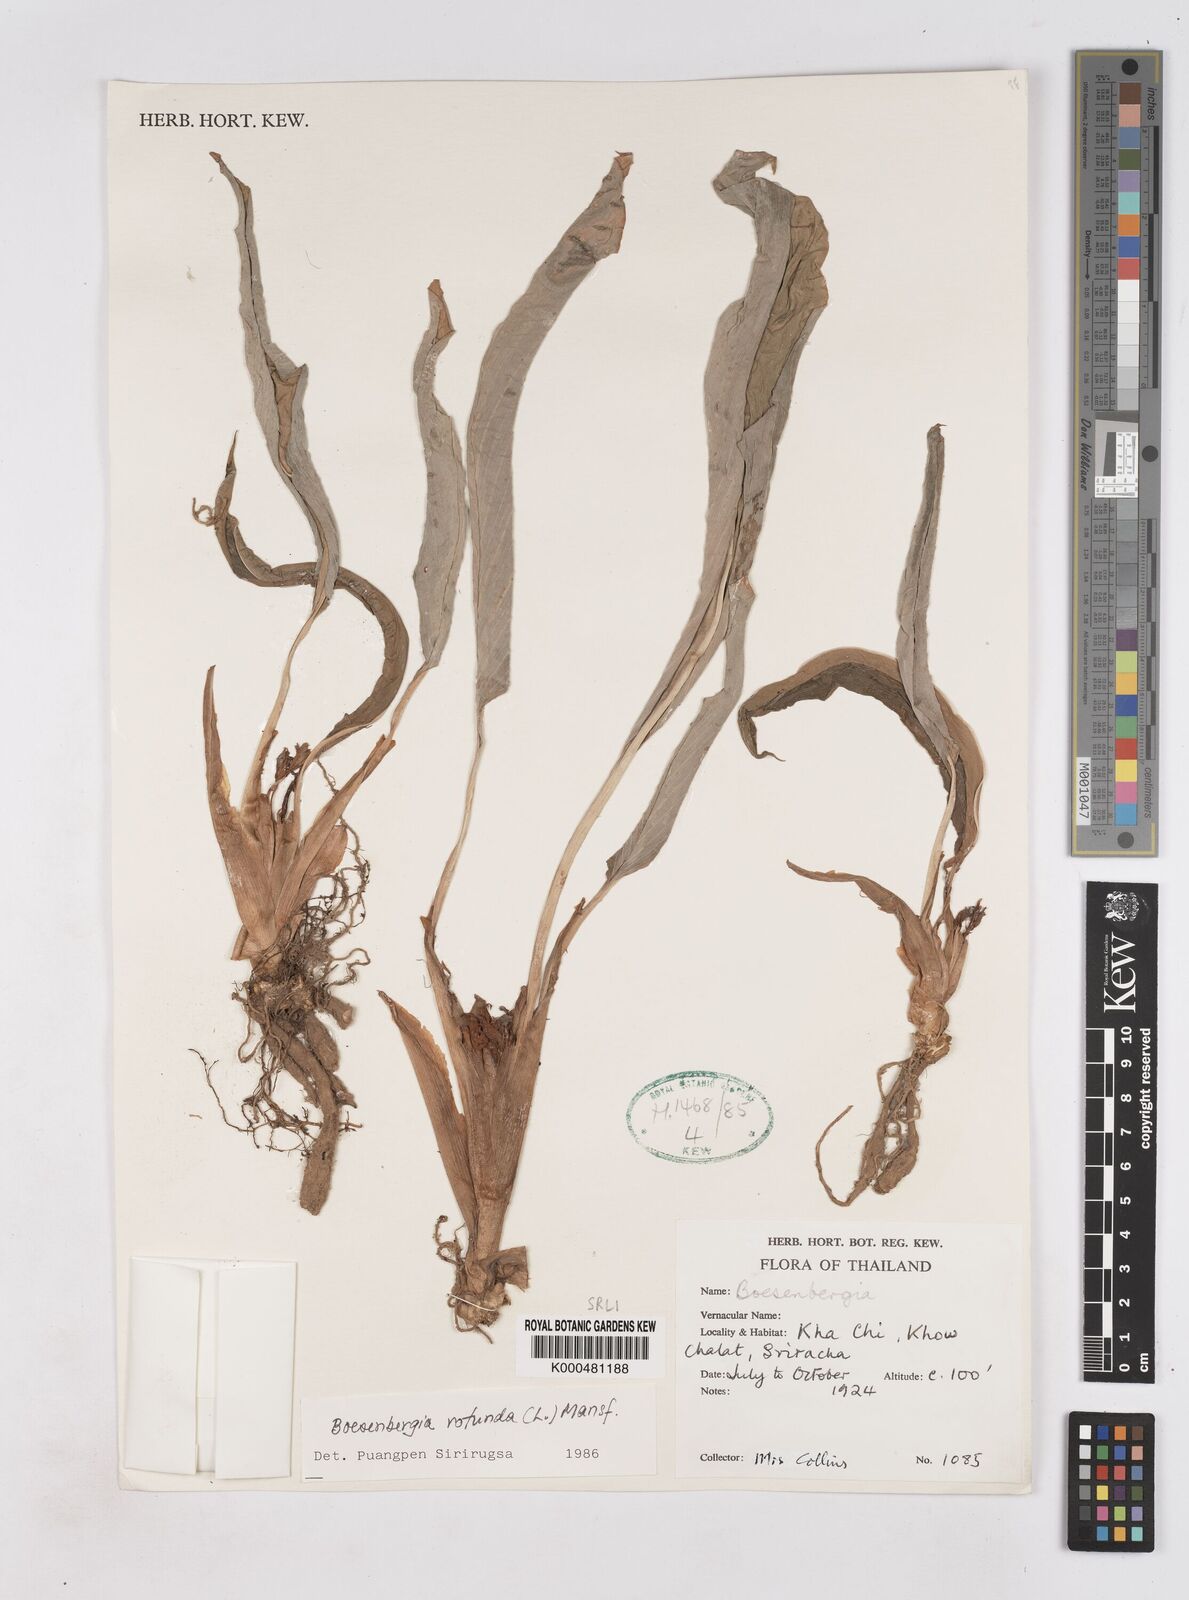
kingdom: Plantae
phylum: Tracheophyta
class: Liliopsida
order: Zingiberales
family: Zingiberaceae
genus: Boesenbergia
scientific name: Boesenbergia rotunda
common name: Chinese ginger
